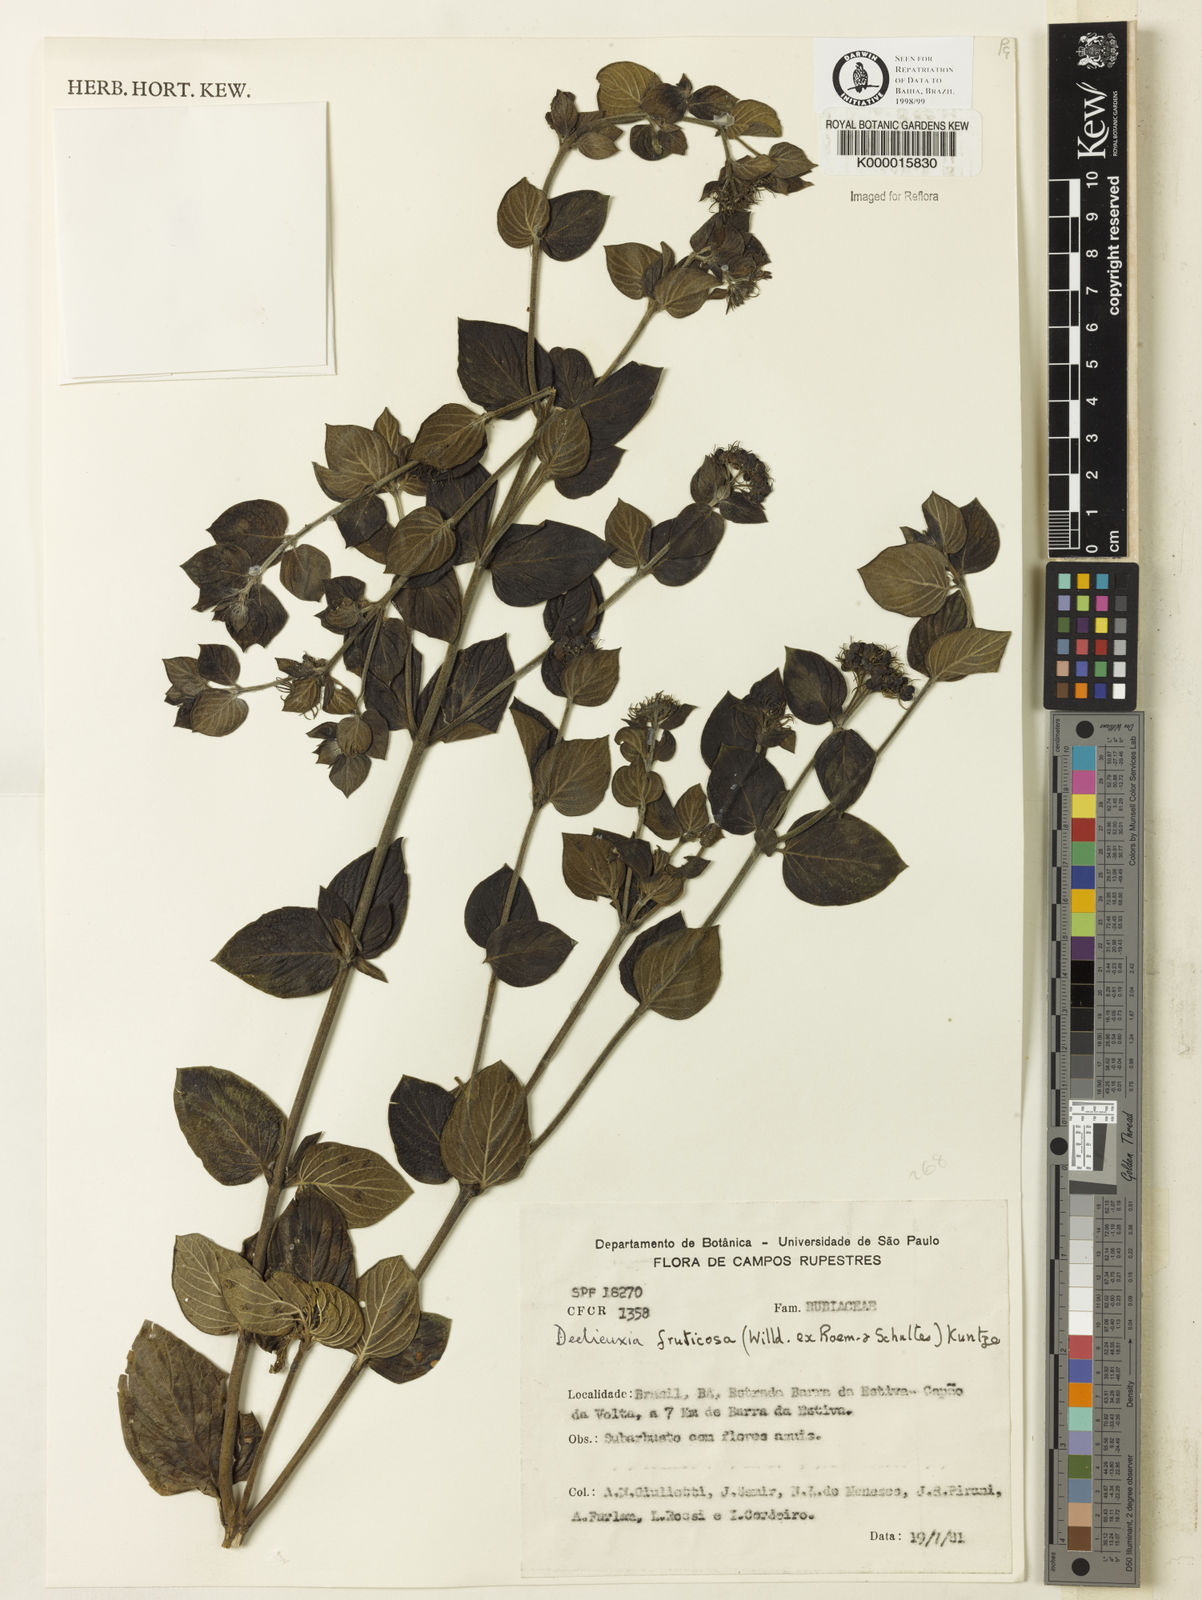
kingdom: Plantae
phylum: Tracheophyta
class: Magnoliopsida
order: Gentianales
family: Rubiaceae
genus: Declieuxia
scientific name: Declieuxia fruticosa
